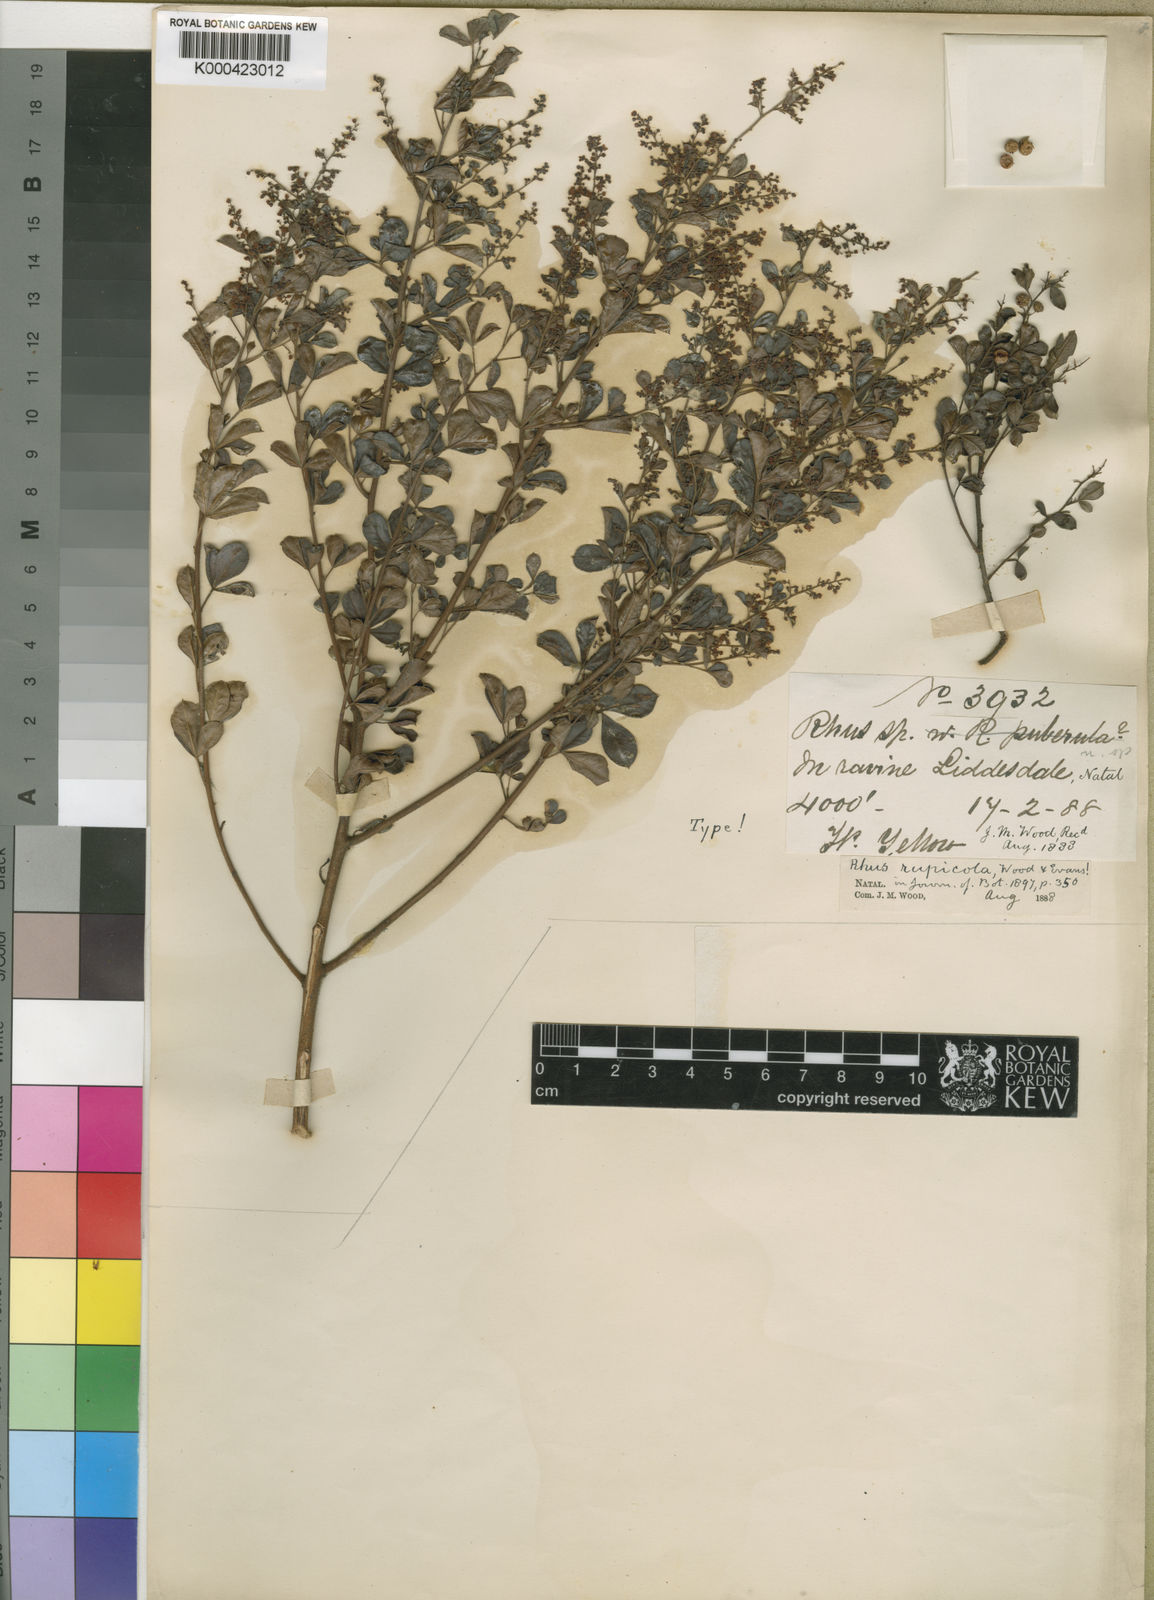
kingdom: Plantae
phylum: Tracheophyta
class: Magnoliopsida
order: Sapindales
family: Anacardiaceae
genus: Searsia
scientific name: Searsia rigida
